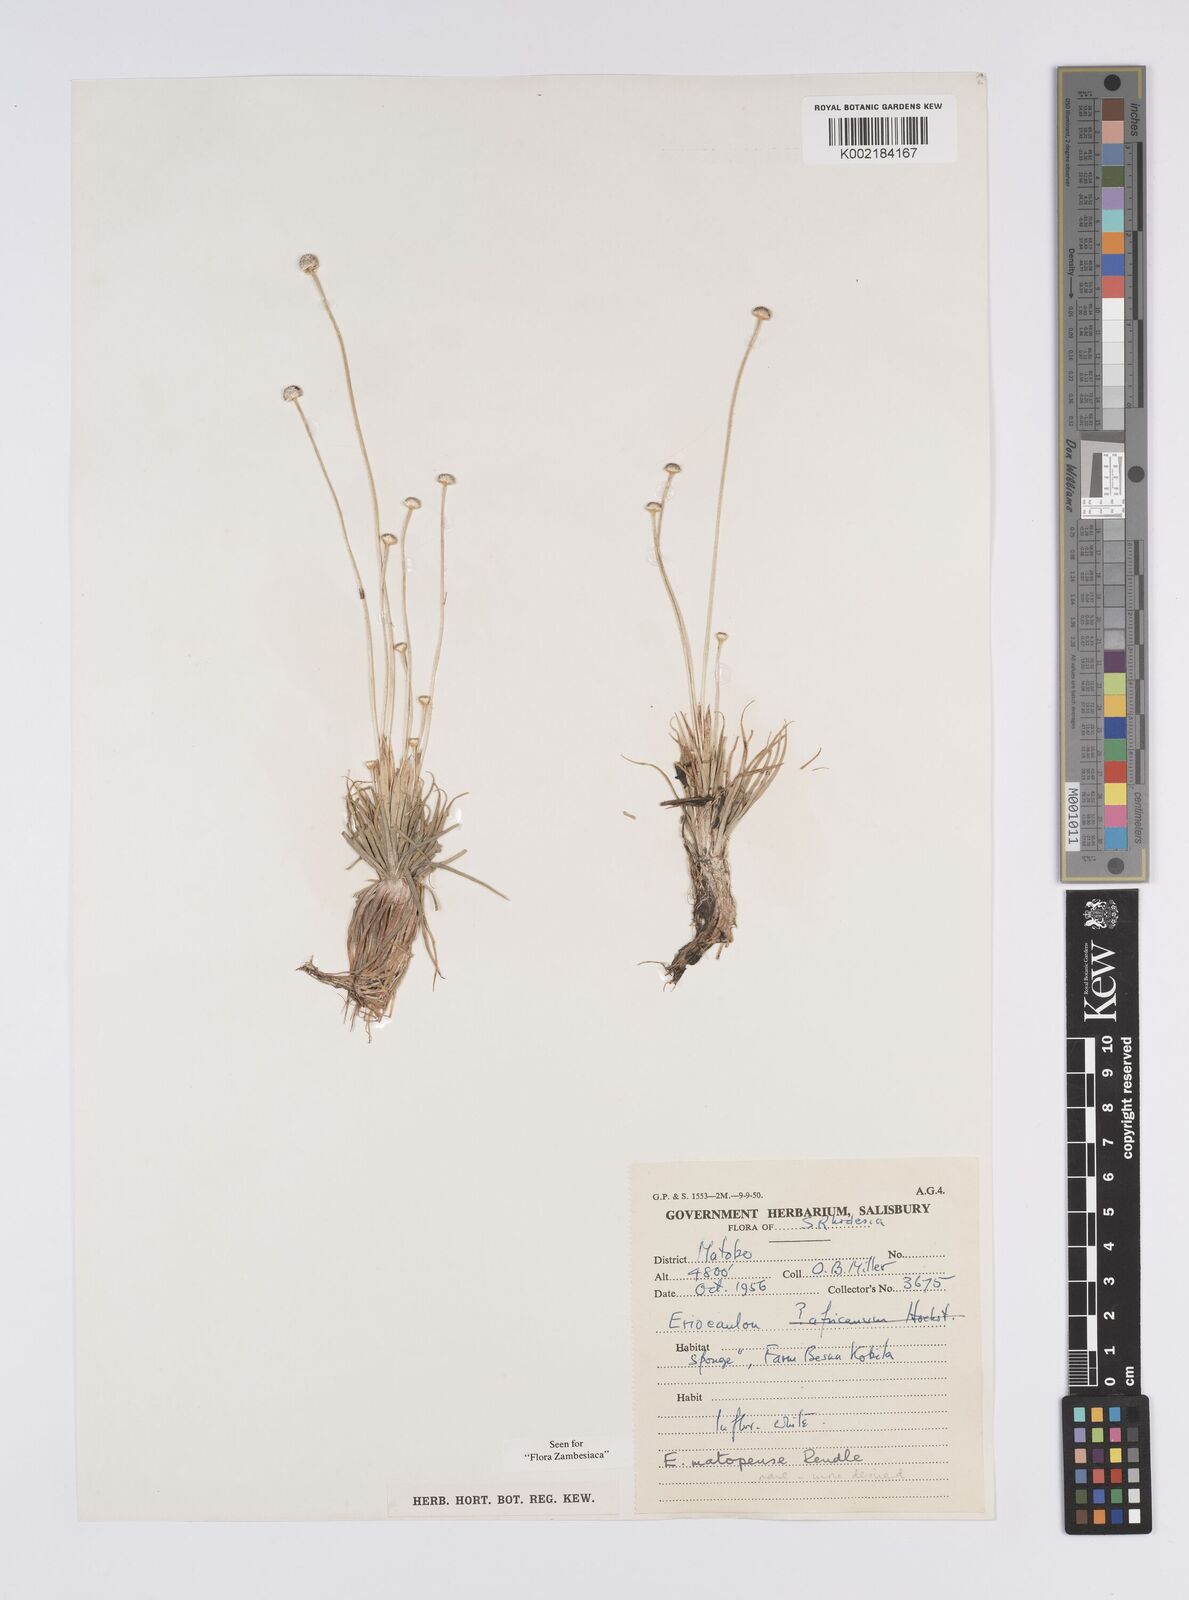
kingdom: Plantae
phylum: Tracheophyta
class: Liliopsida
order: Poales
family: Eriocaulaceae
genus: Eriocaulon
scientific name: Eriocaulon matopense
